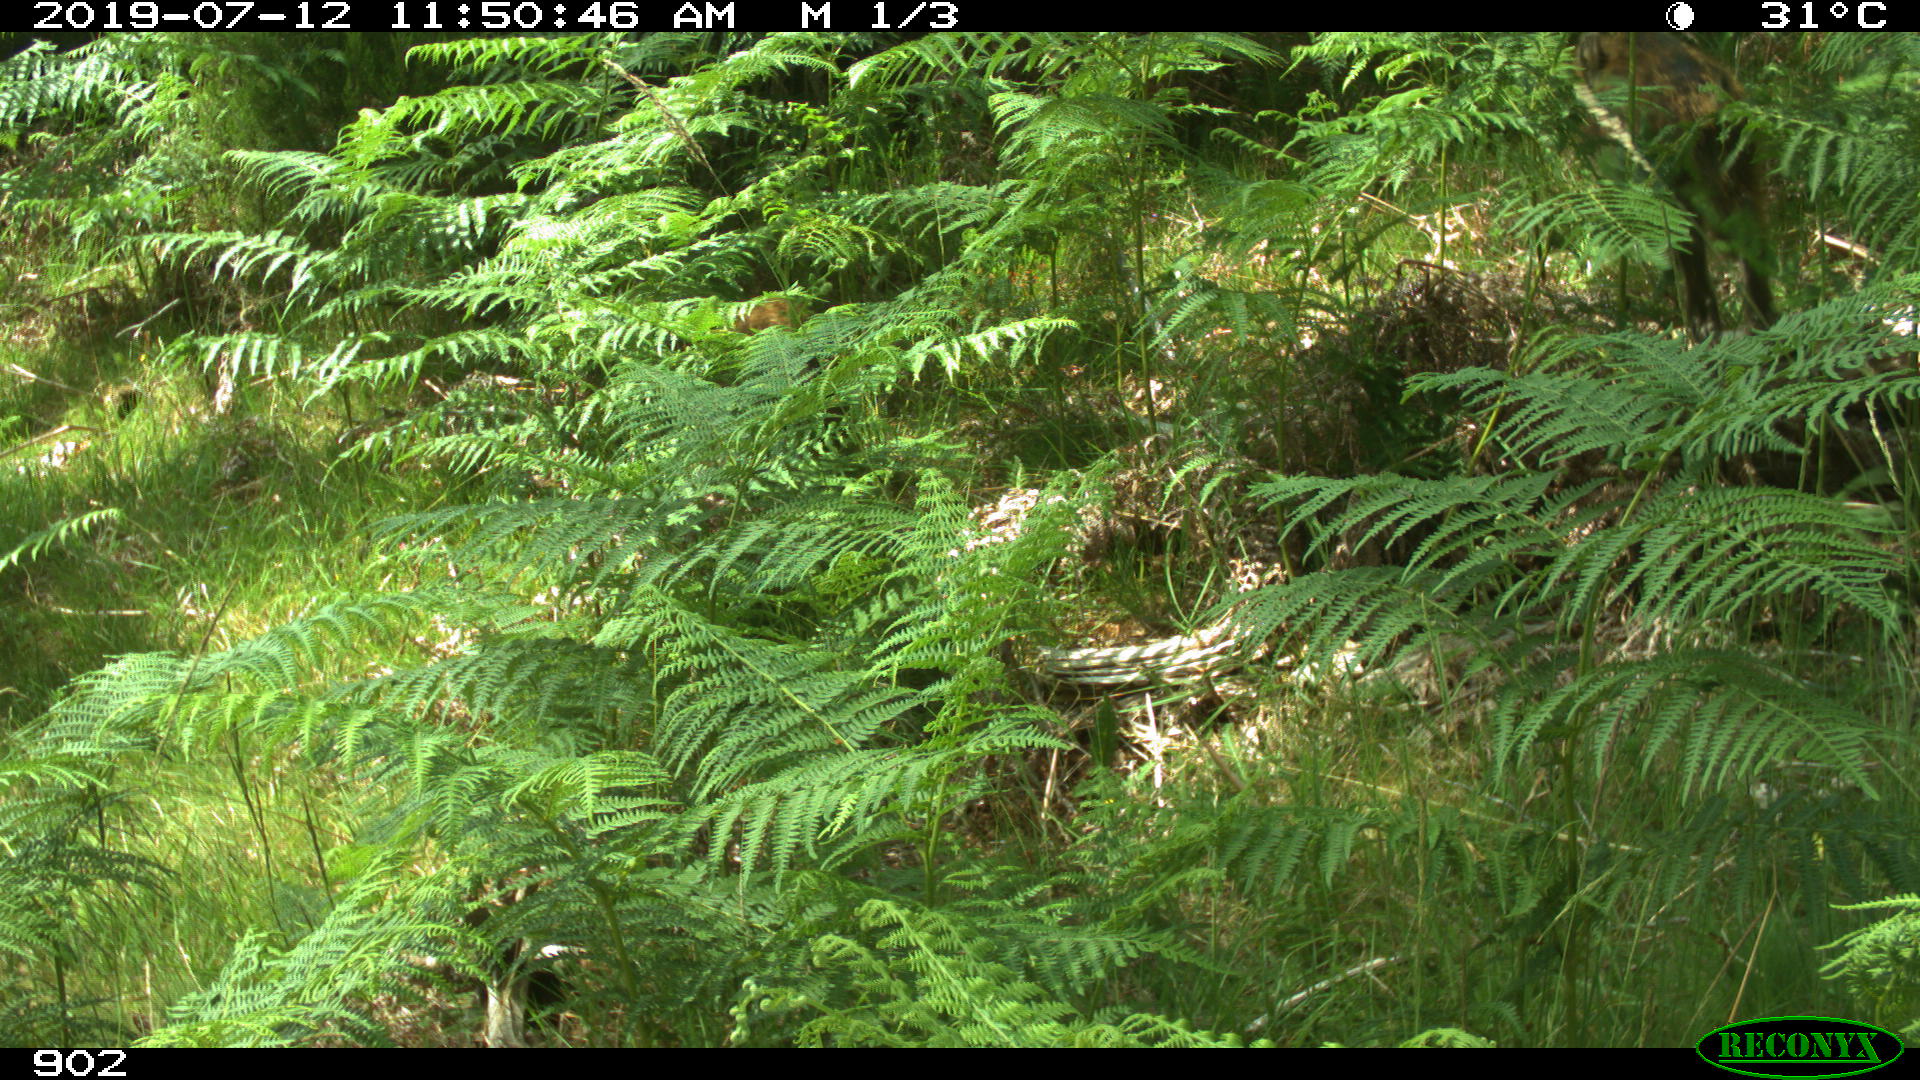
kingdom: Animalia
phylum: Chordata
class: Mammalia
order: Artiodactyla
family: Suidae
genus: Sus
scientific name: Sus scrofa
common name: Wild boar
